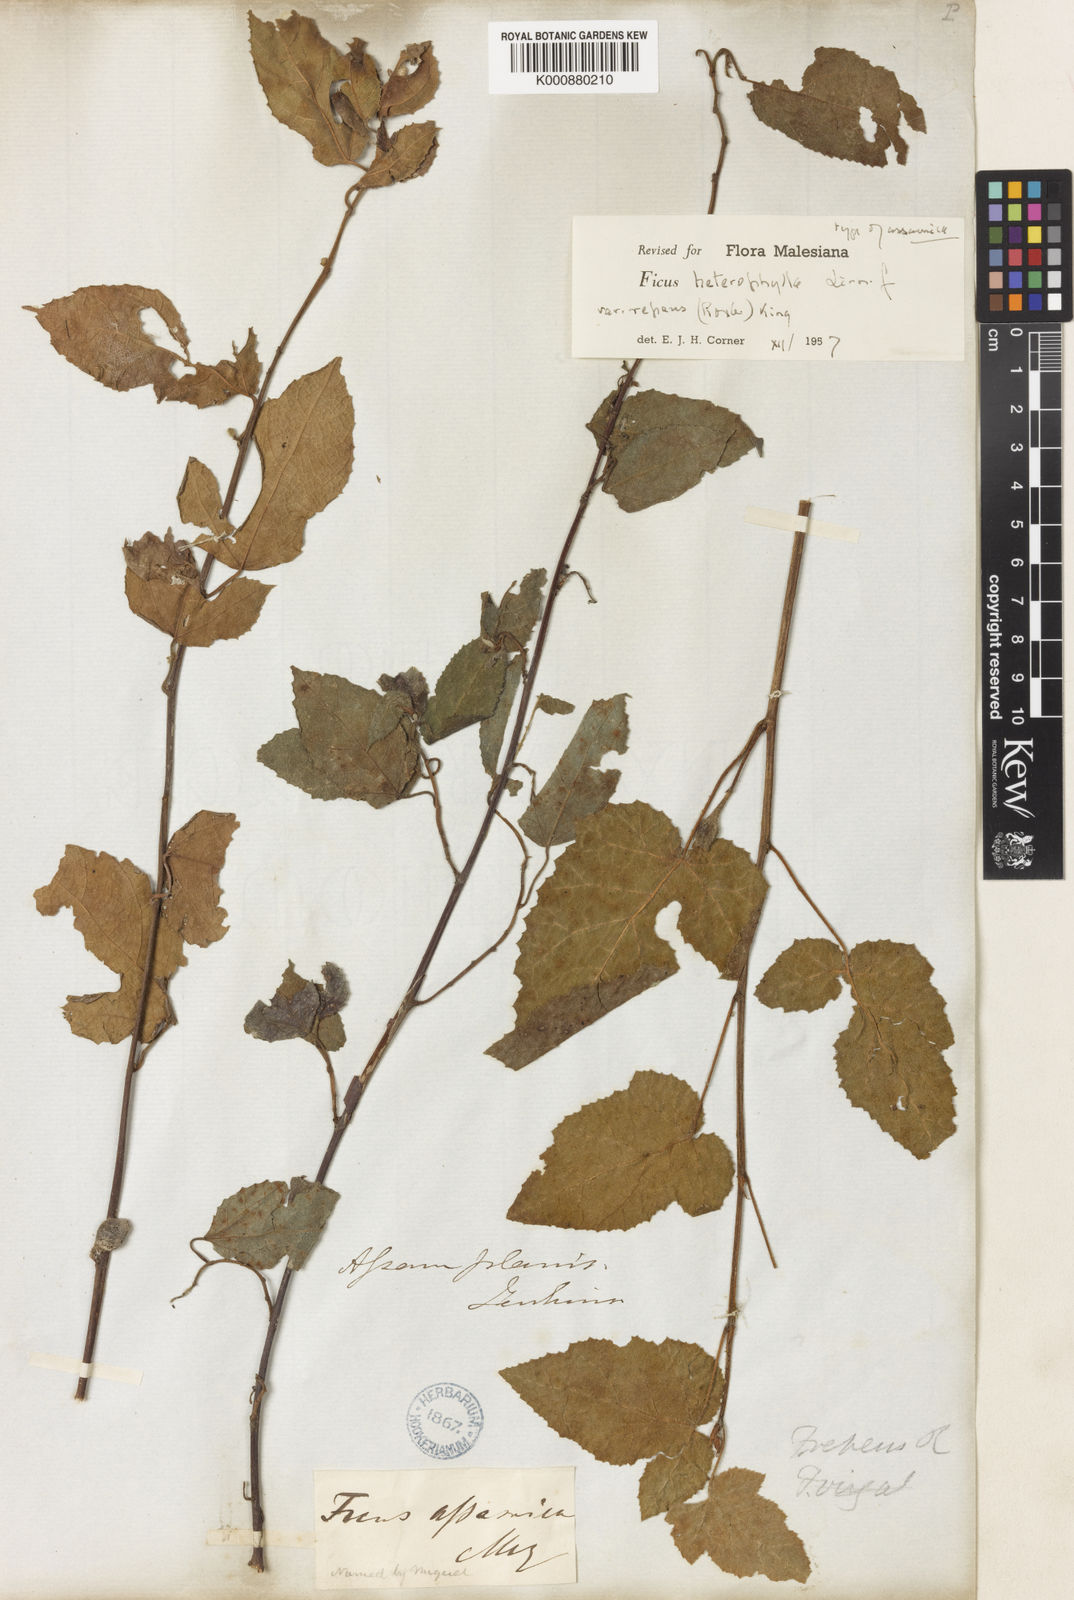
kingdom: Plantae
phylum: Tracheophyta
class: Magnoliopsida
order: Rosales
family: Moraceae
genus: Ficus
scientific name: Ficus assamica
